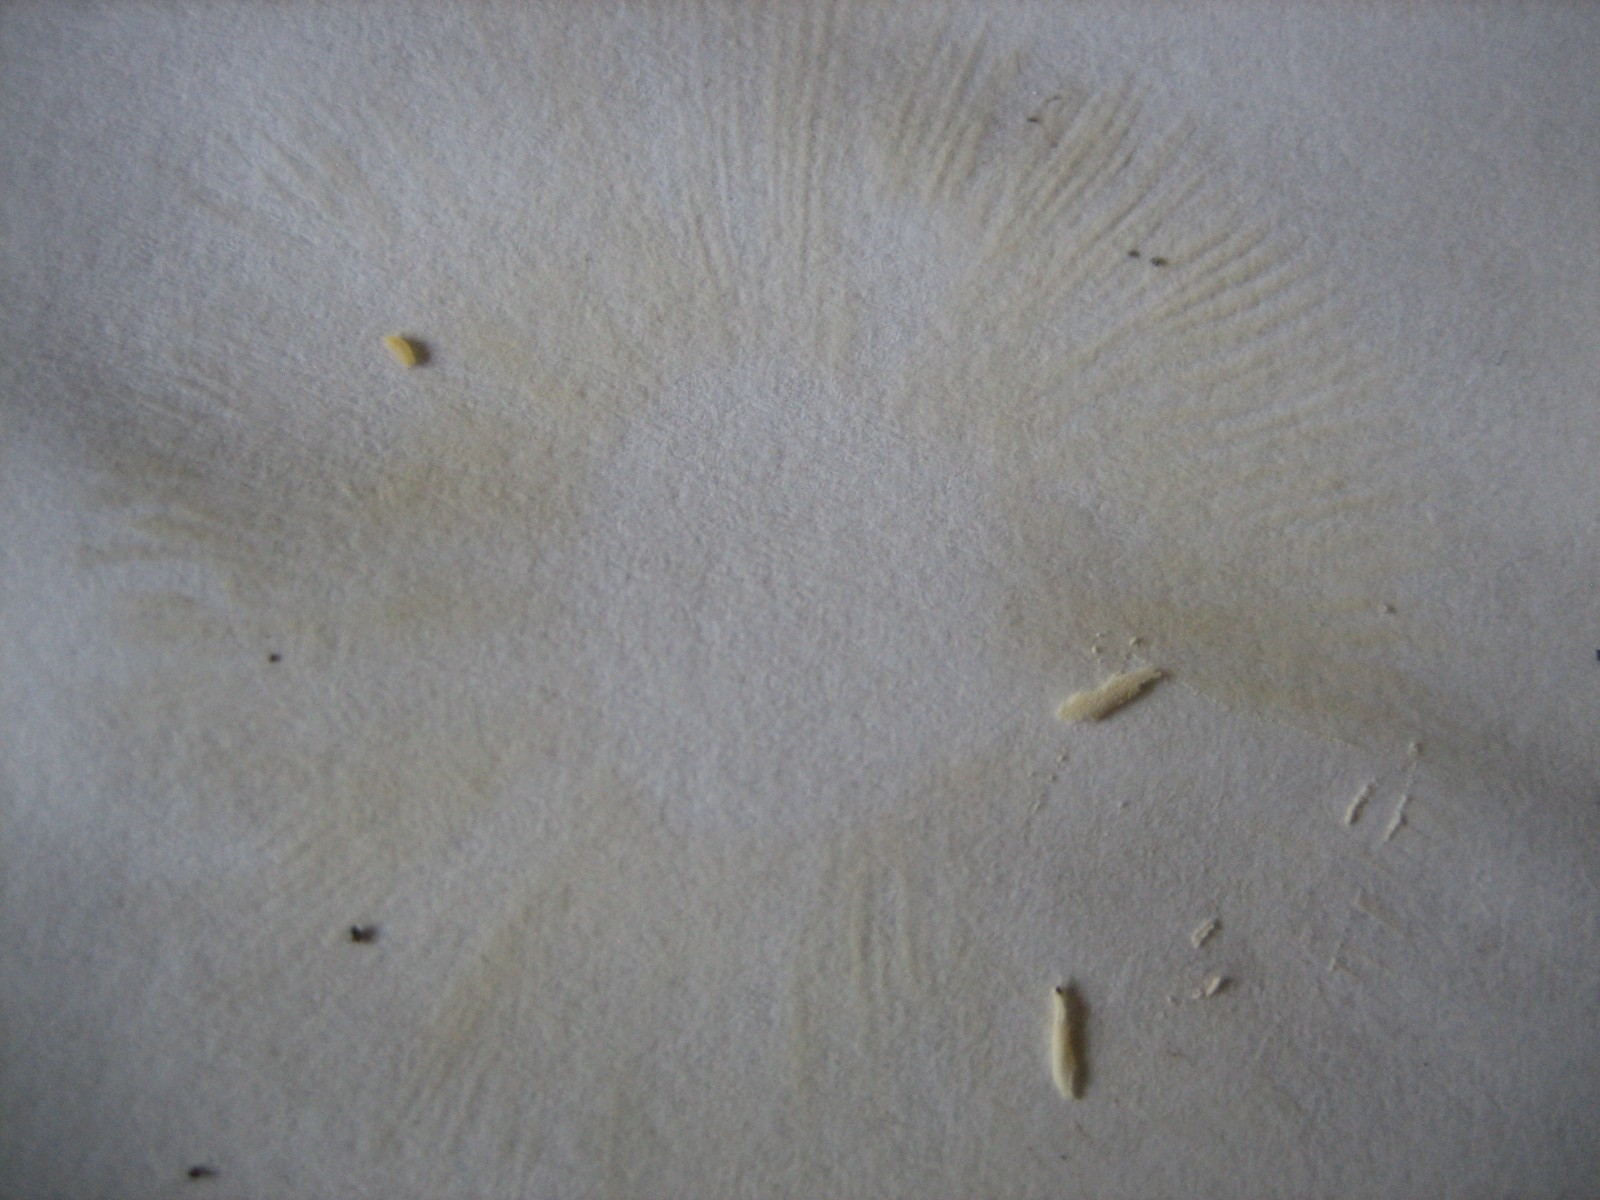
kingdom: Fungi
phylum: Basidiomycota
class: Agaricomycetes
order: Russulales
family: Russulaceae
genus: Russula
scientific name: Russula
